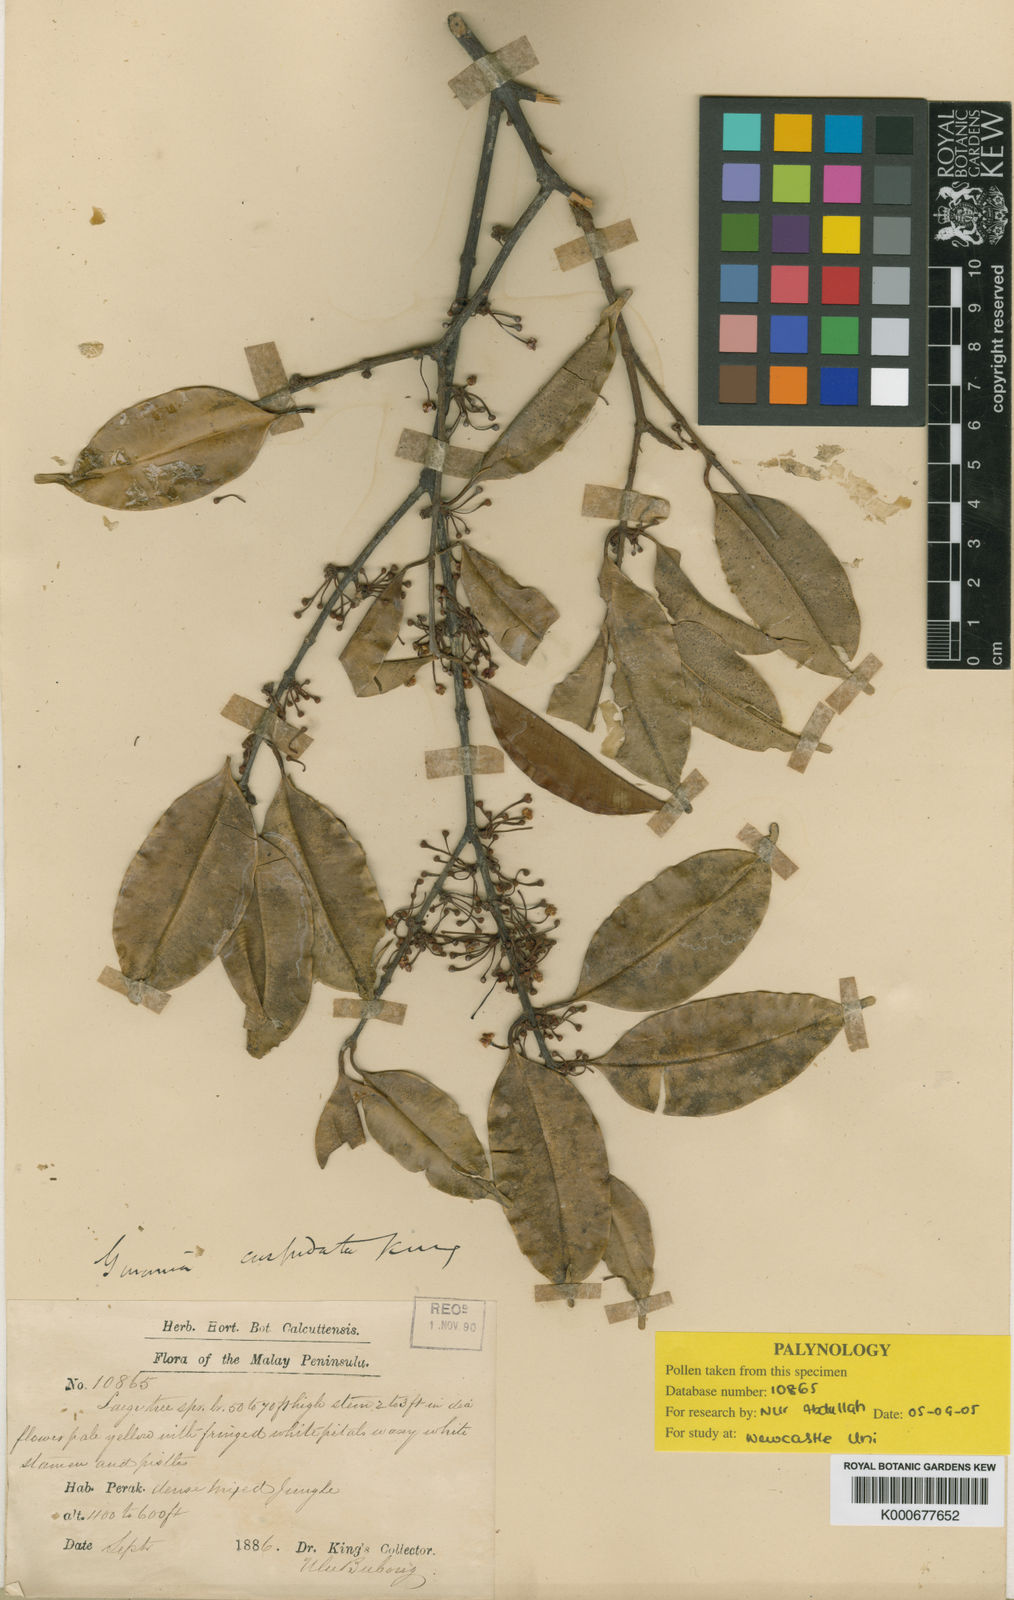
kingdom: Plantae
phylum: Tracheophyta
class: Magnoliopsida
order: Malpighiales
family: Clusiaceae
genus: Garcinia
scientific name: Garcinia cuspidata
